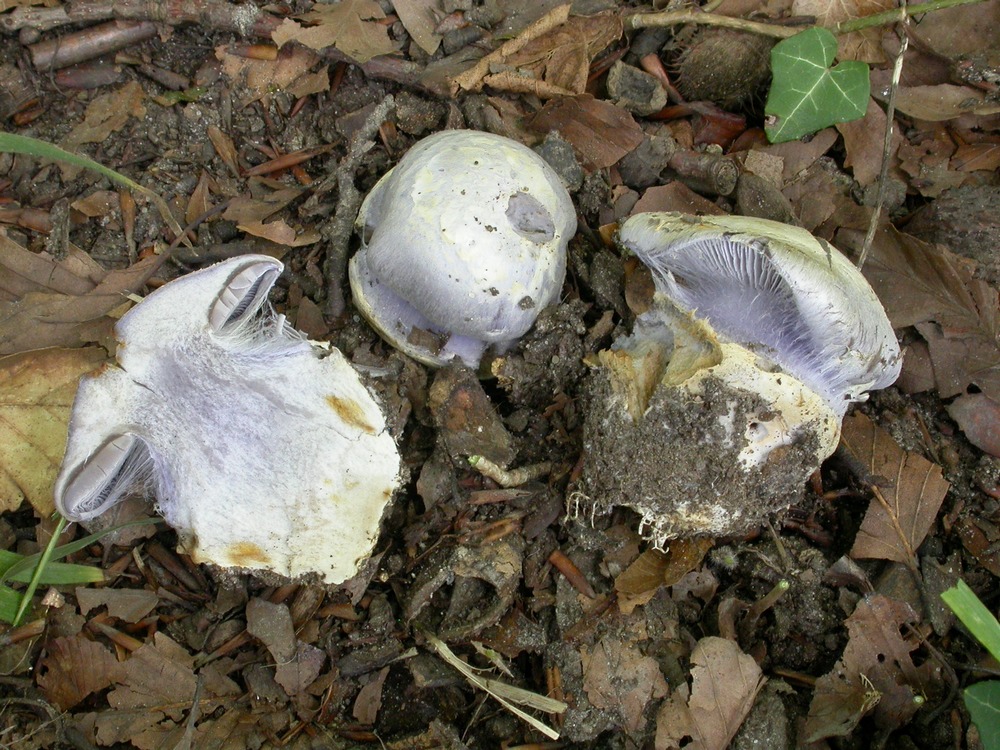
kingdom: Fungi
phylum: Basidiomycota
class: Agaricomycetes
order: Agaricales
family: Cortinariaceae
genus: Cortinarius
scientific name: Cortinarius caerulescens
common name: blåkødet slørhat
